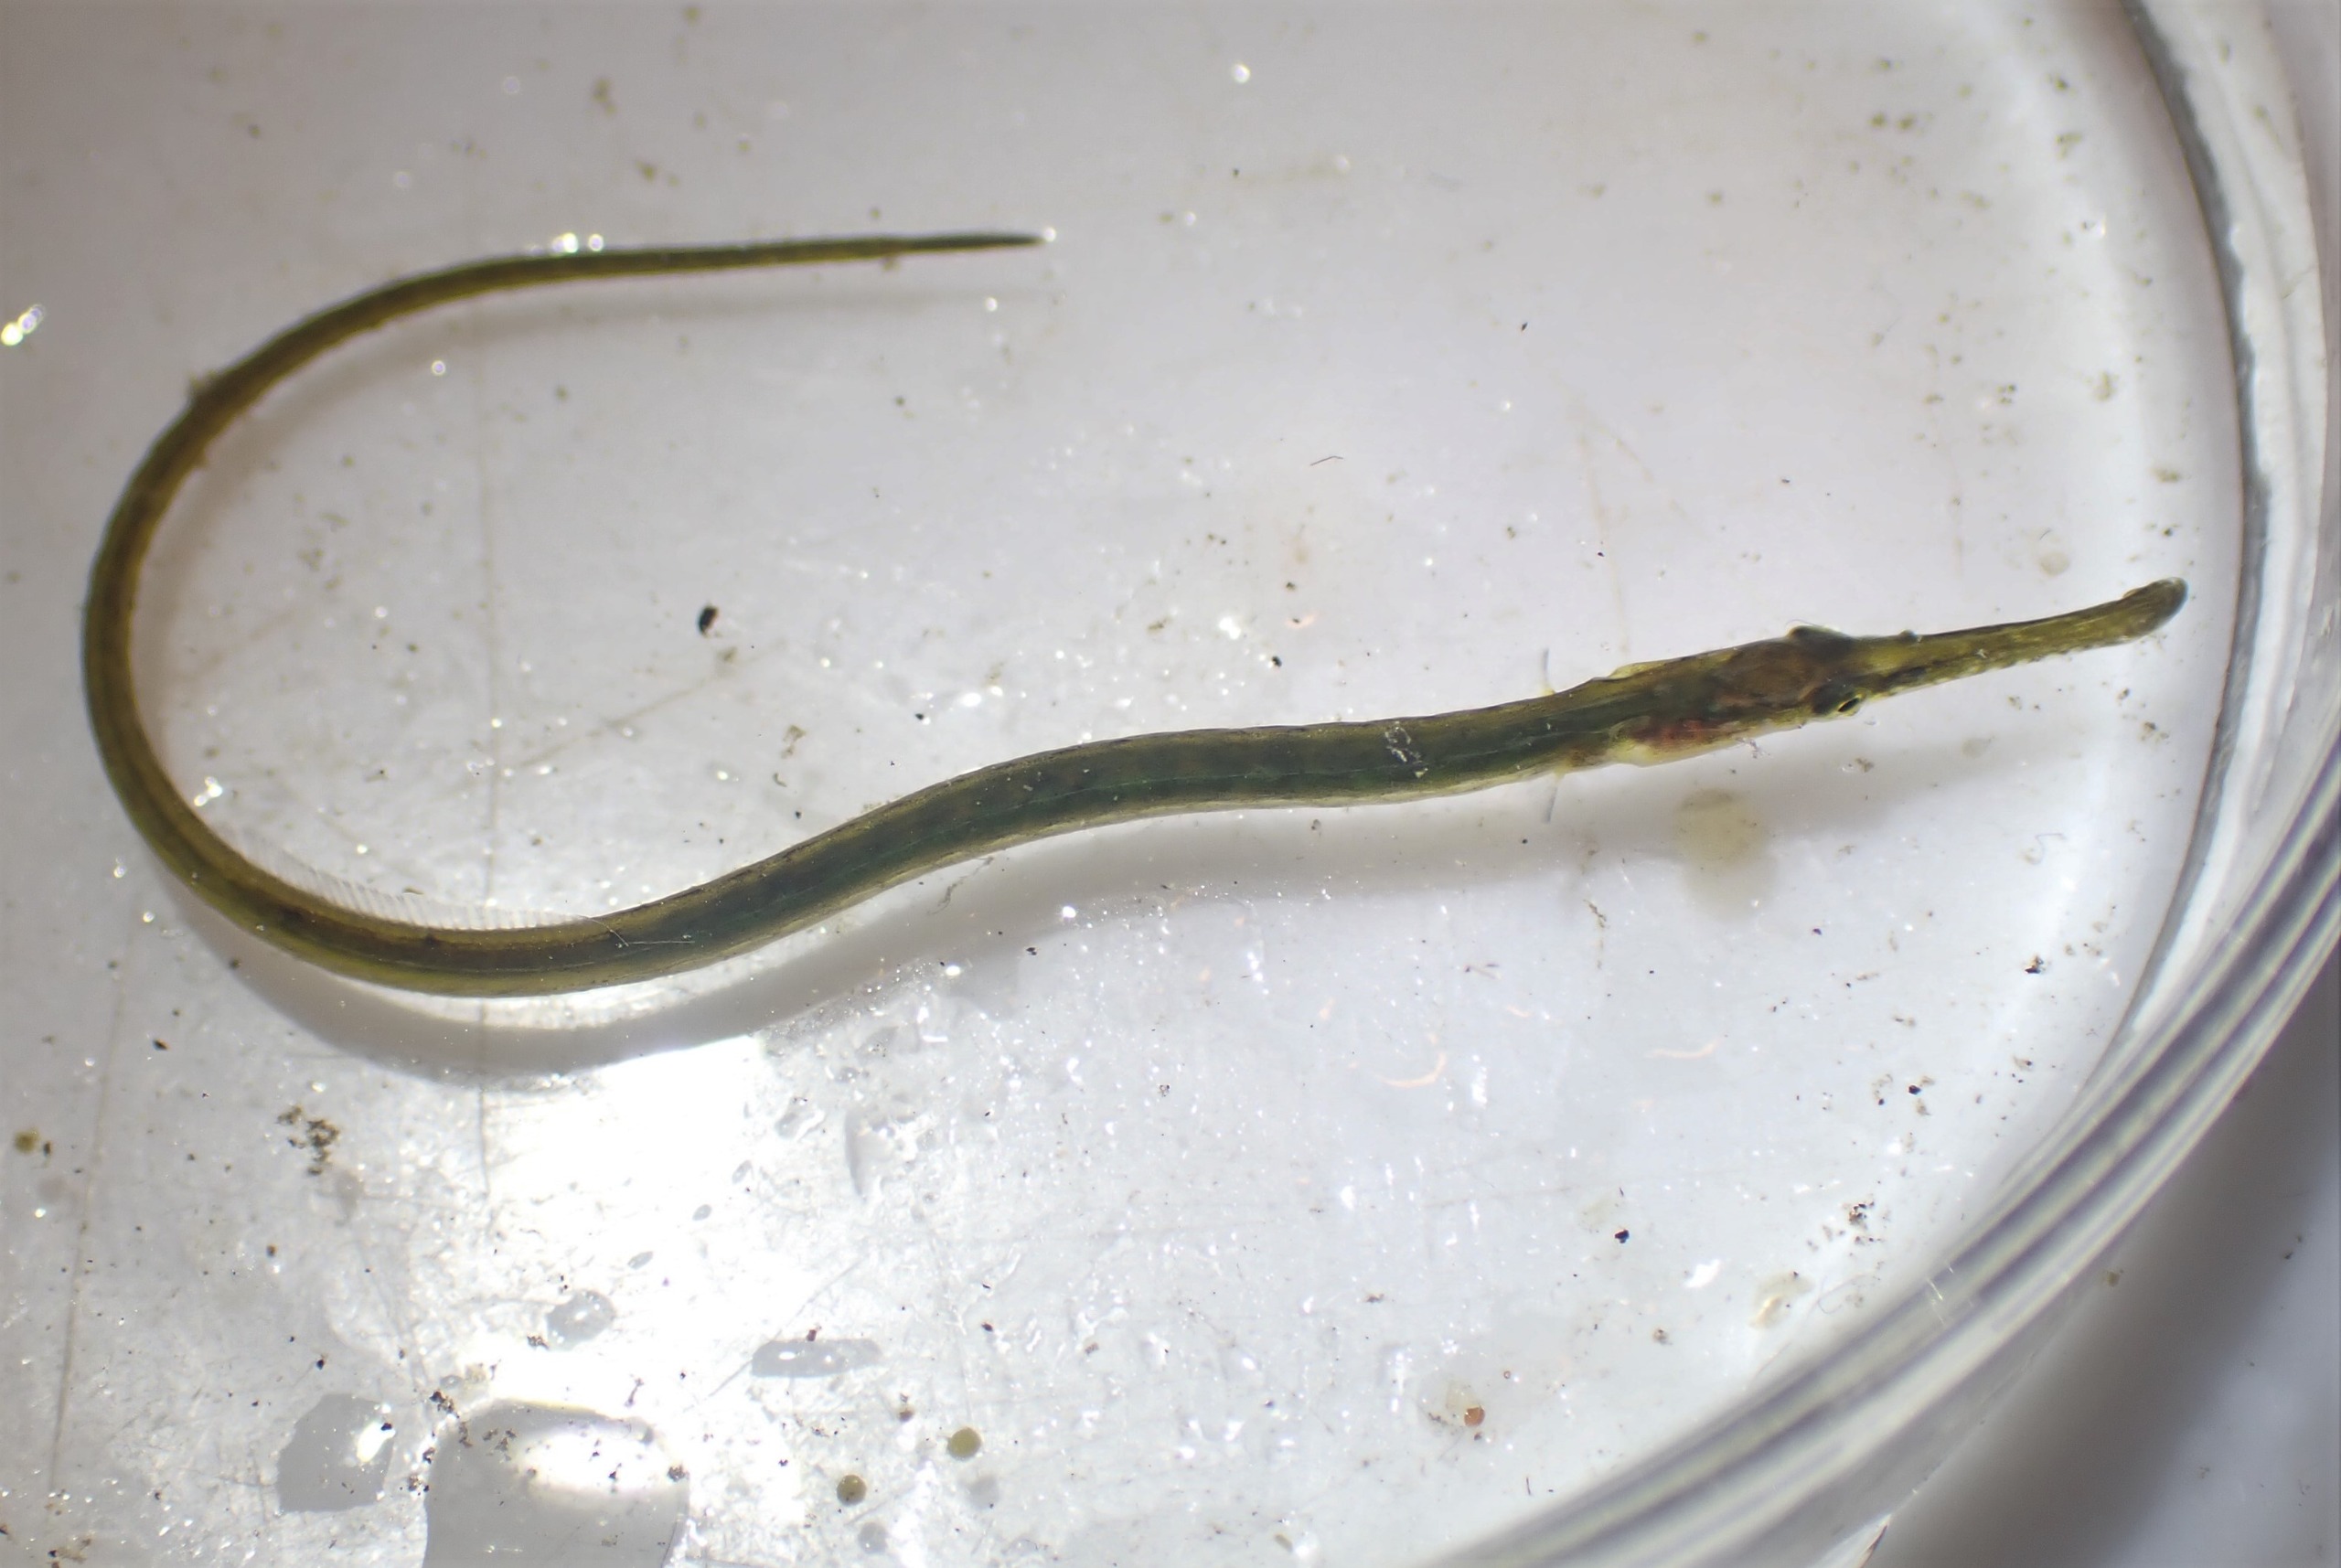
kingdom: Animalia
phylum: Chordata
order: Syngnathiformes
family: Syngnathidae
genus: Syngnathus
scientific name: Syngnathus typhle
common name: Almindelig tangnål
